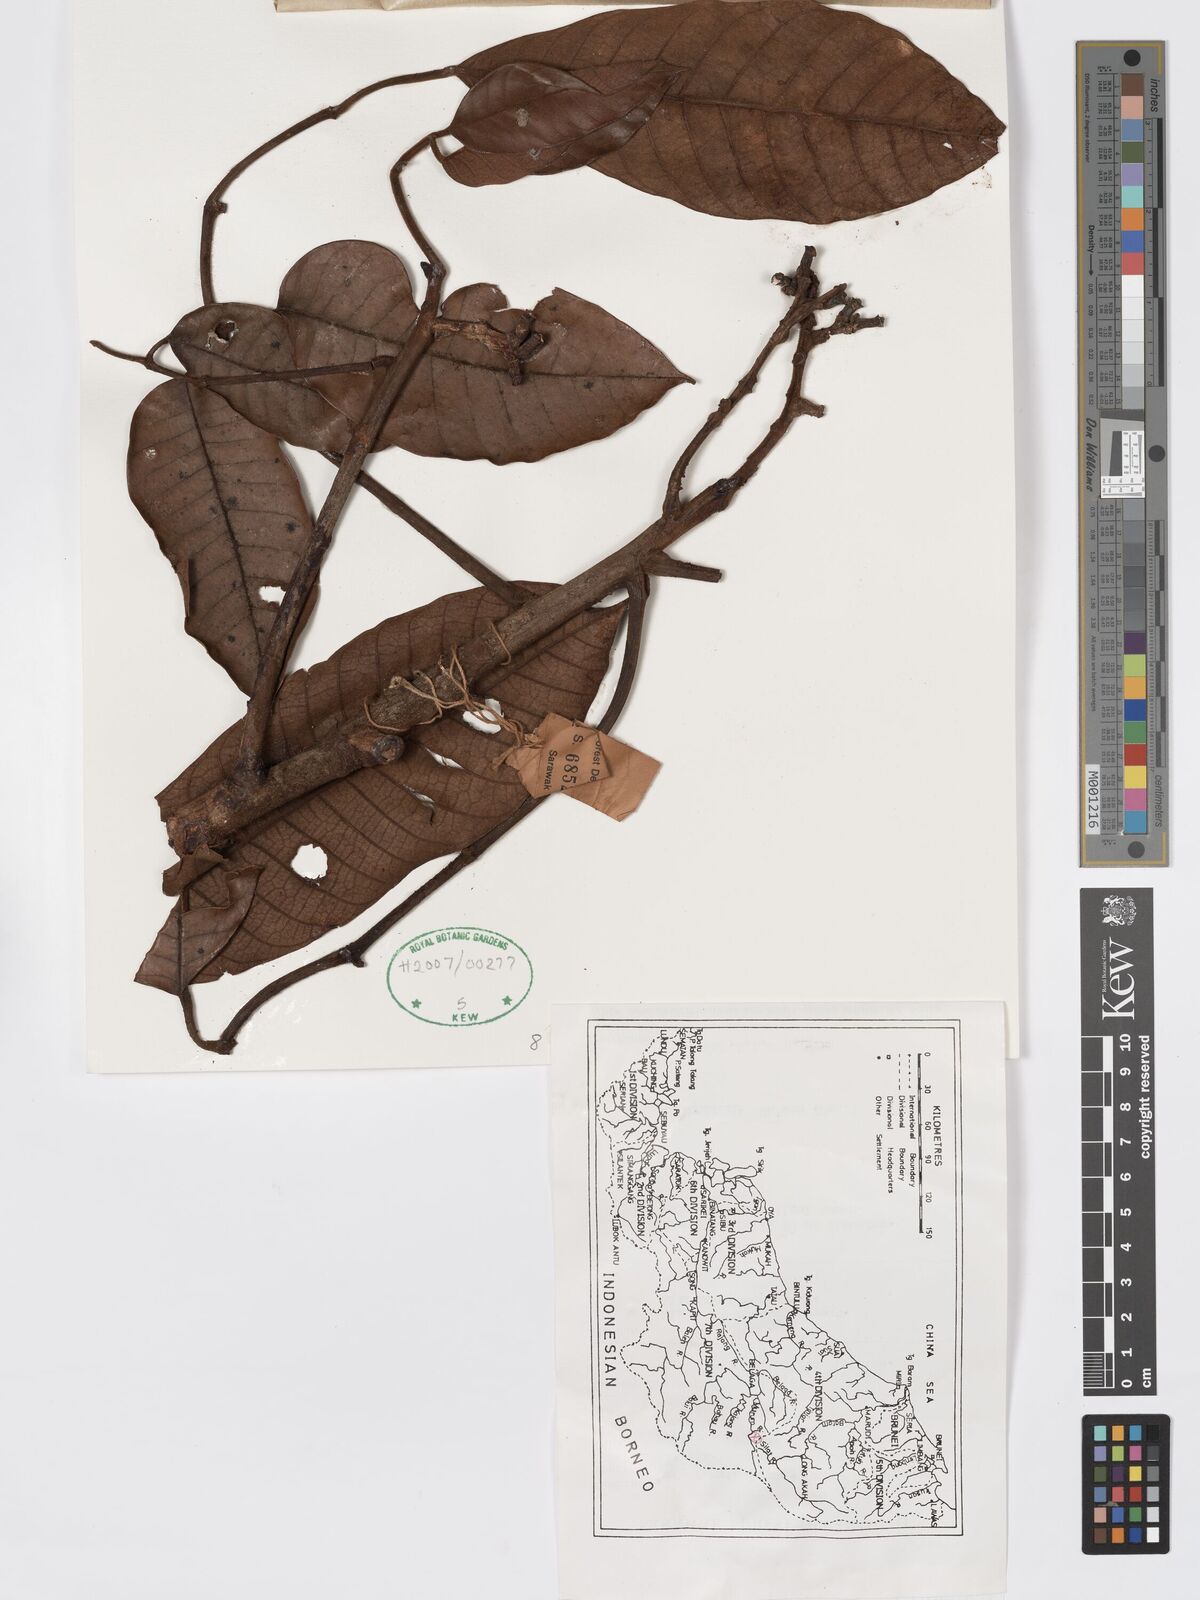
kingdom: Plantae
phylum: Tracheophyta
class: Magnoliopsida
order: Sapindales
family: Burseraceae
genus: Santiria
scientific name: Santiria tomentosa
